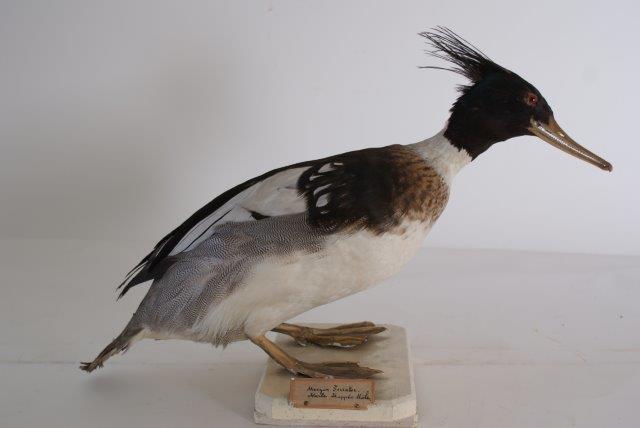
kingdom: Animalia
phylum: Chordata
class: Aves
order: Anseriformes
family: Anatidae
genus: Mergus
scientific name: Mergus serrator
